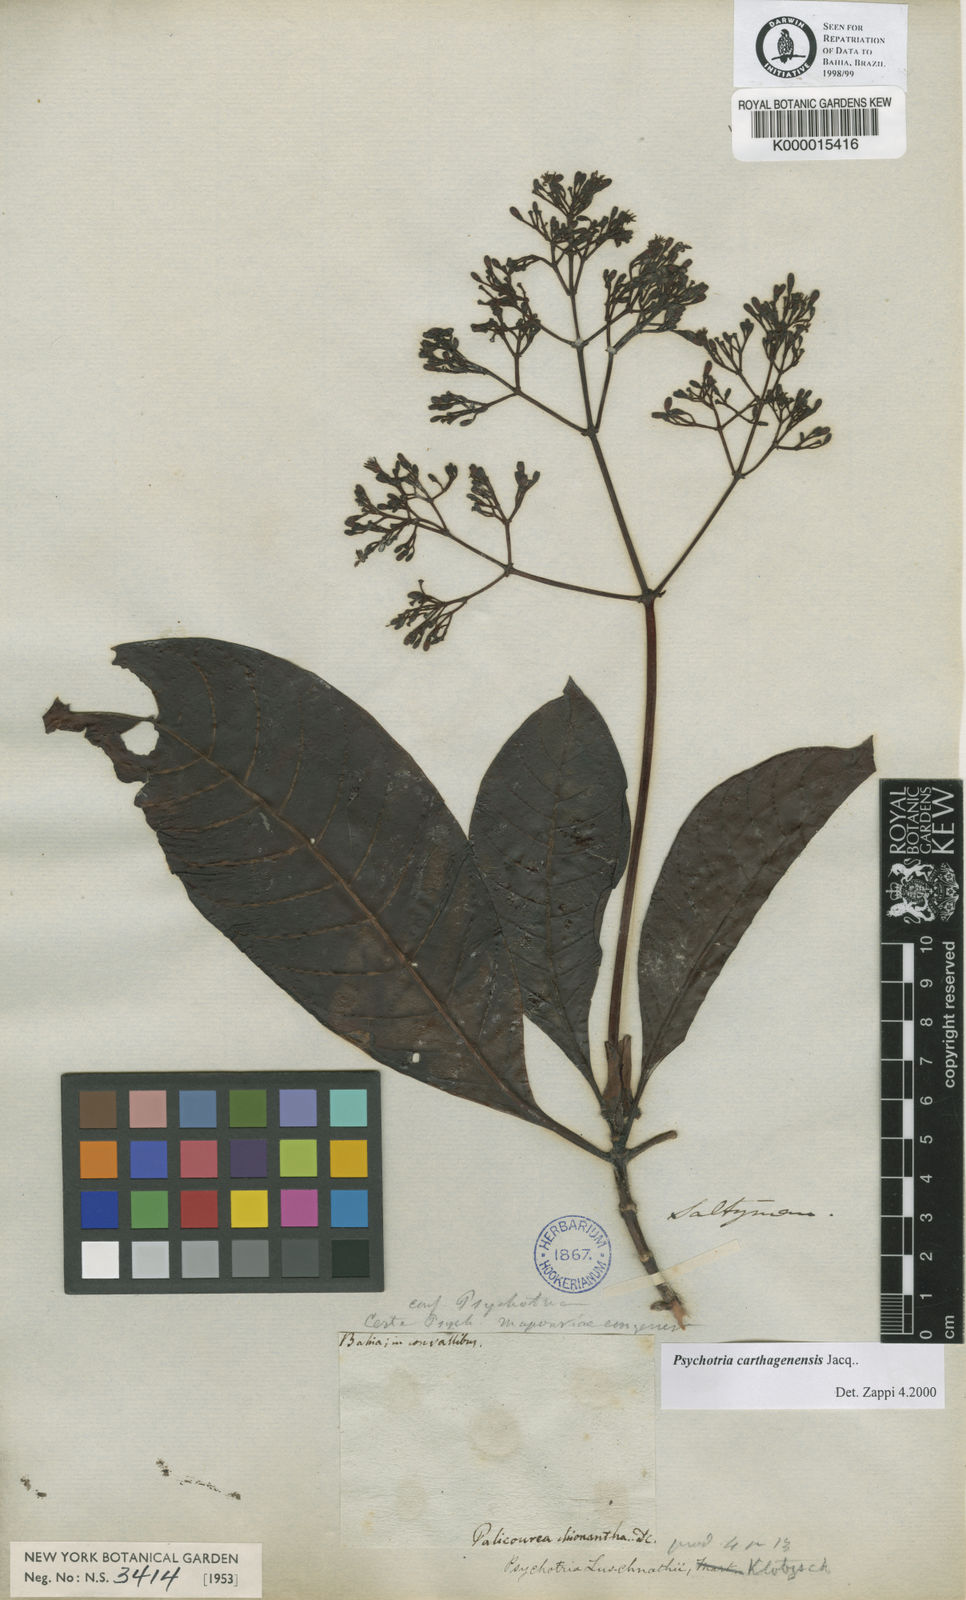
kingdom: Plantae
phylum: Tracheophyta
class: Magnoliopsida
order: Gentianales
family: Rubiaceae
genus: Psychotria
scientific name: Psychotria carthagenensis
